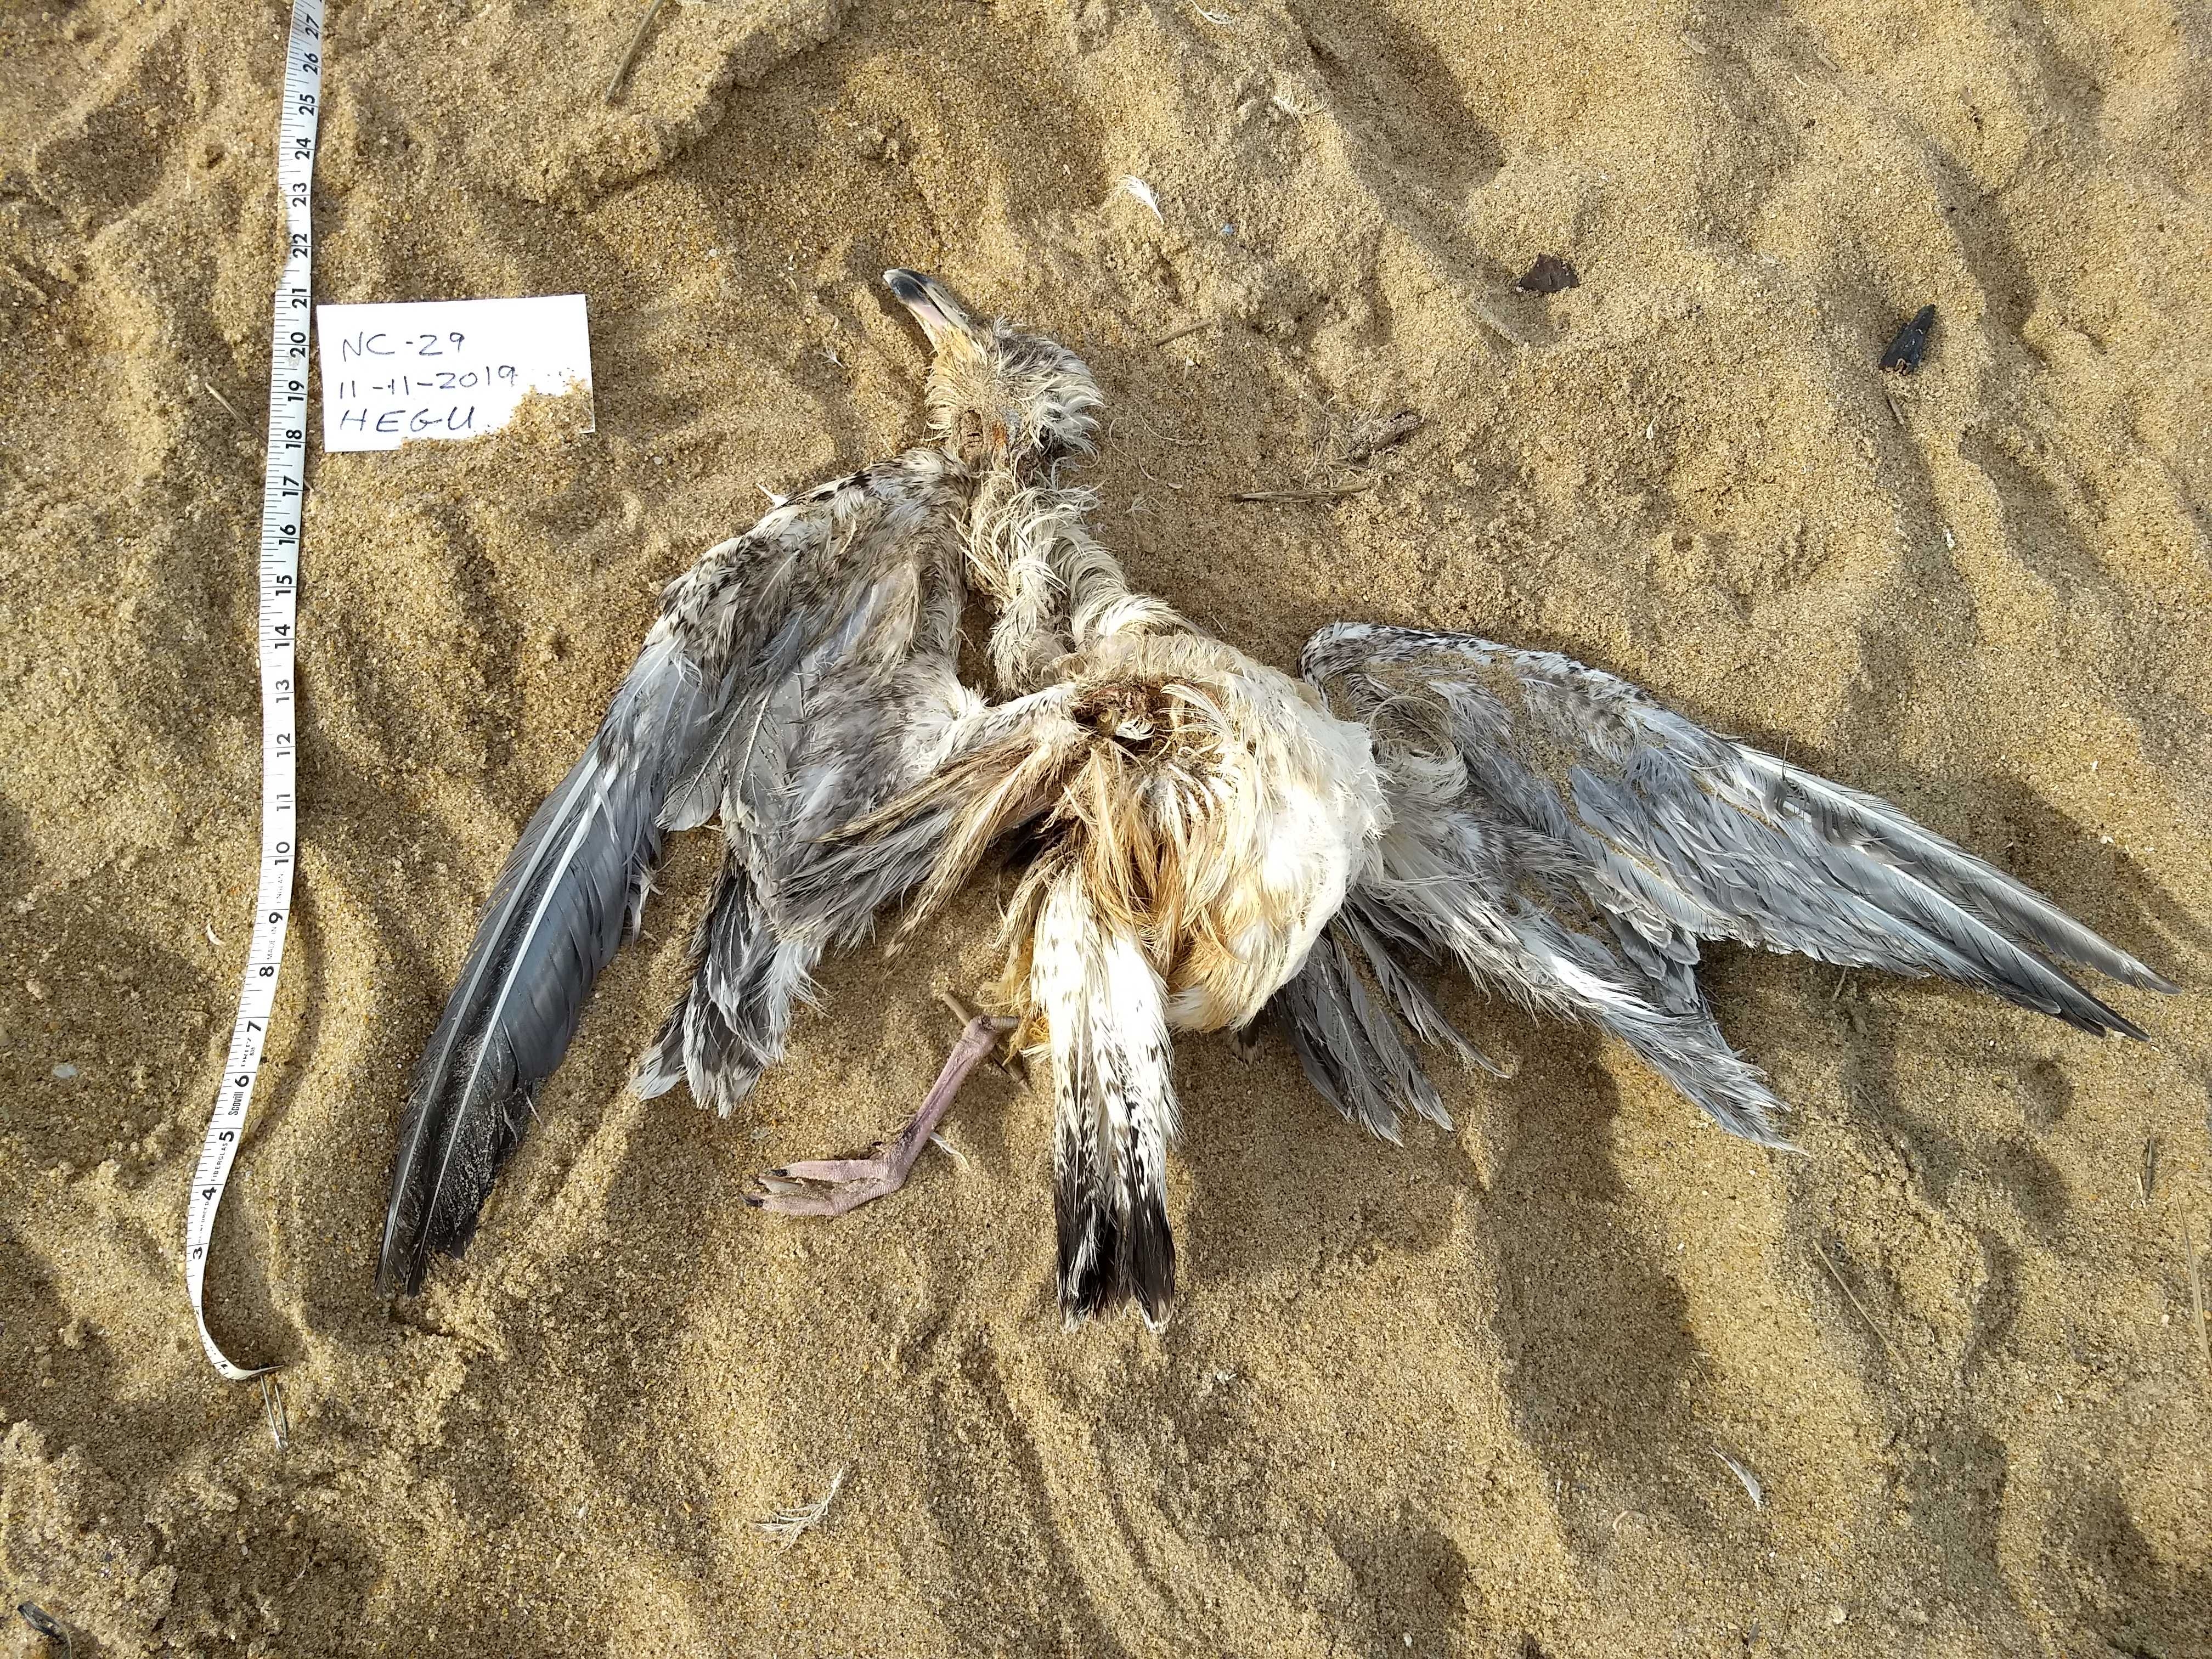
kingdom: Animalia
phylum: Chordata
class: Aves
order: Charadriiformes
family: Laridae
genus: Larus
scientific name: Larus smithsonianus
